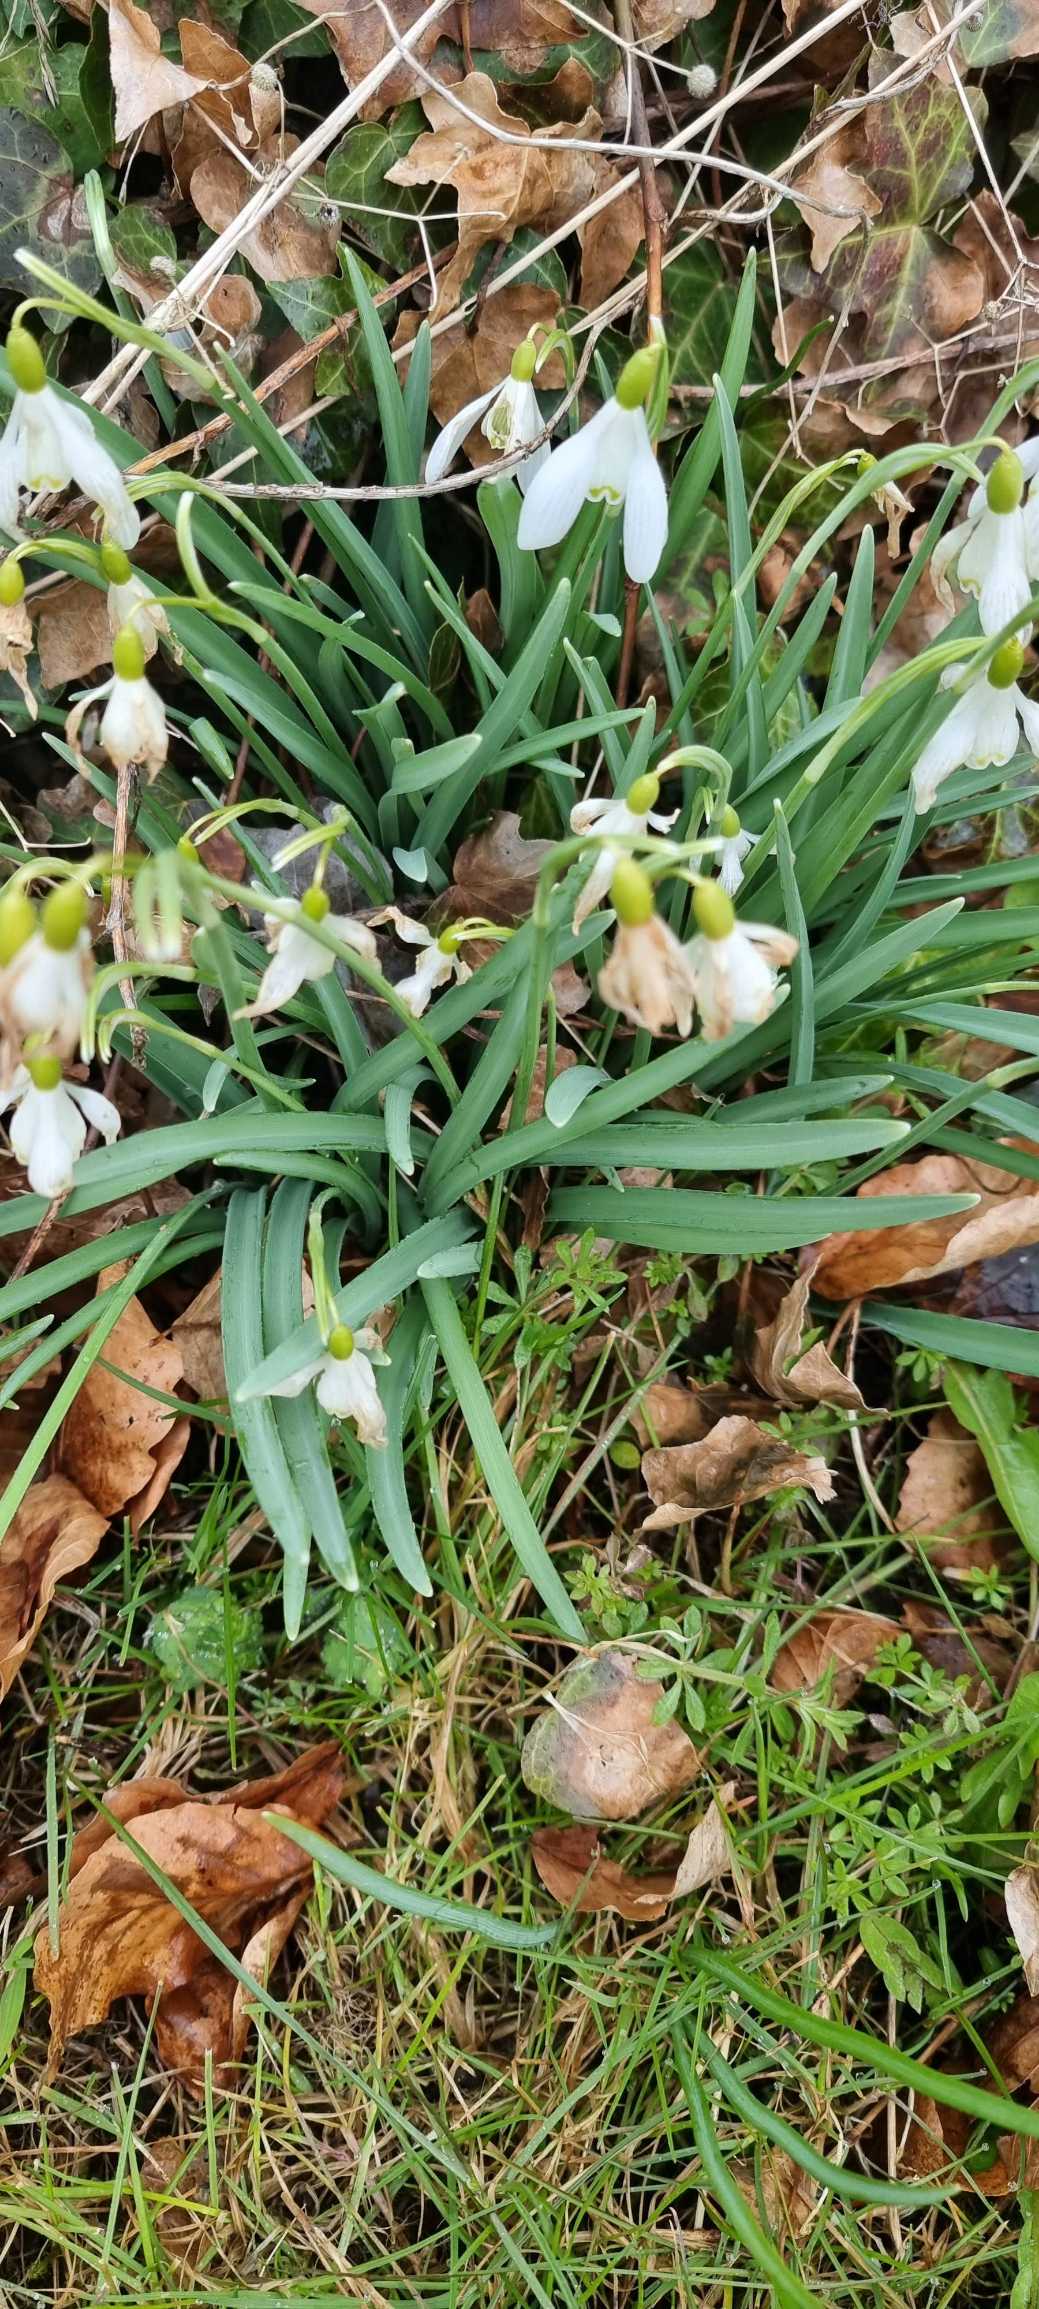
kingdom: Plantae
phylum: Tracheophyta
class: Liliopsida
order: Asparagales
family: Amaryllidaceae
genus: Galanthus
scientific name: Galanthus nivalis
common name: Vintergæk
